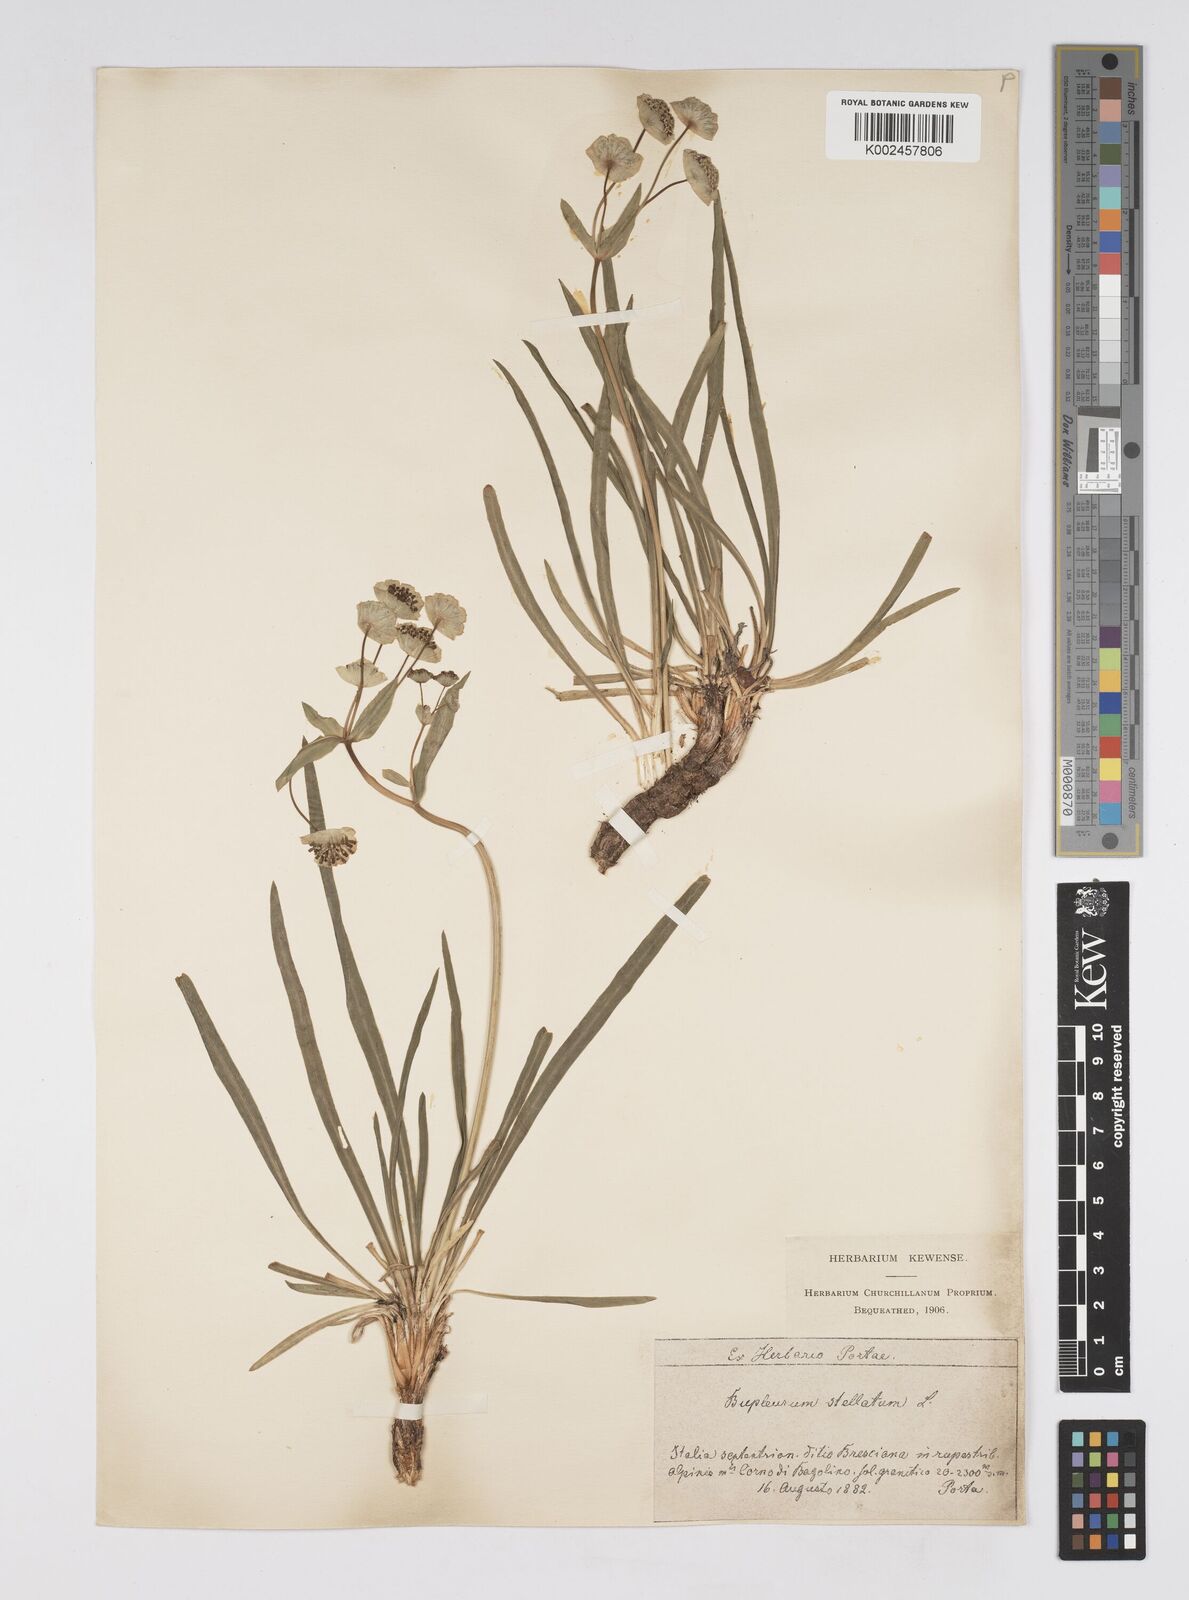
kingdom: Plantae
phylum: Tracheophyta
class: Magnoliopsida
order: Apiales
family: Apiaceae
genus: Bupleurum
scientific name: Bupleurum stellatum
